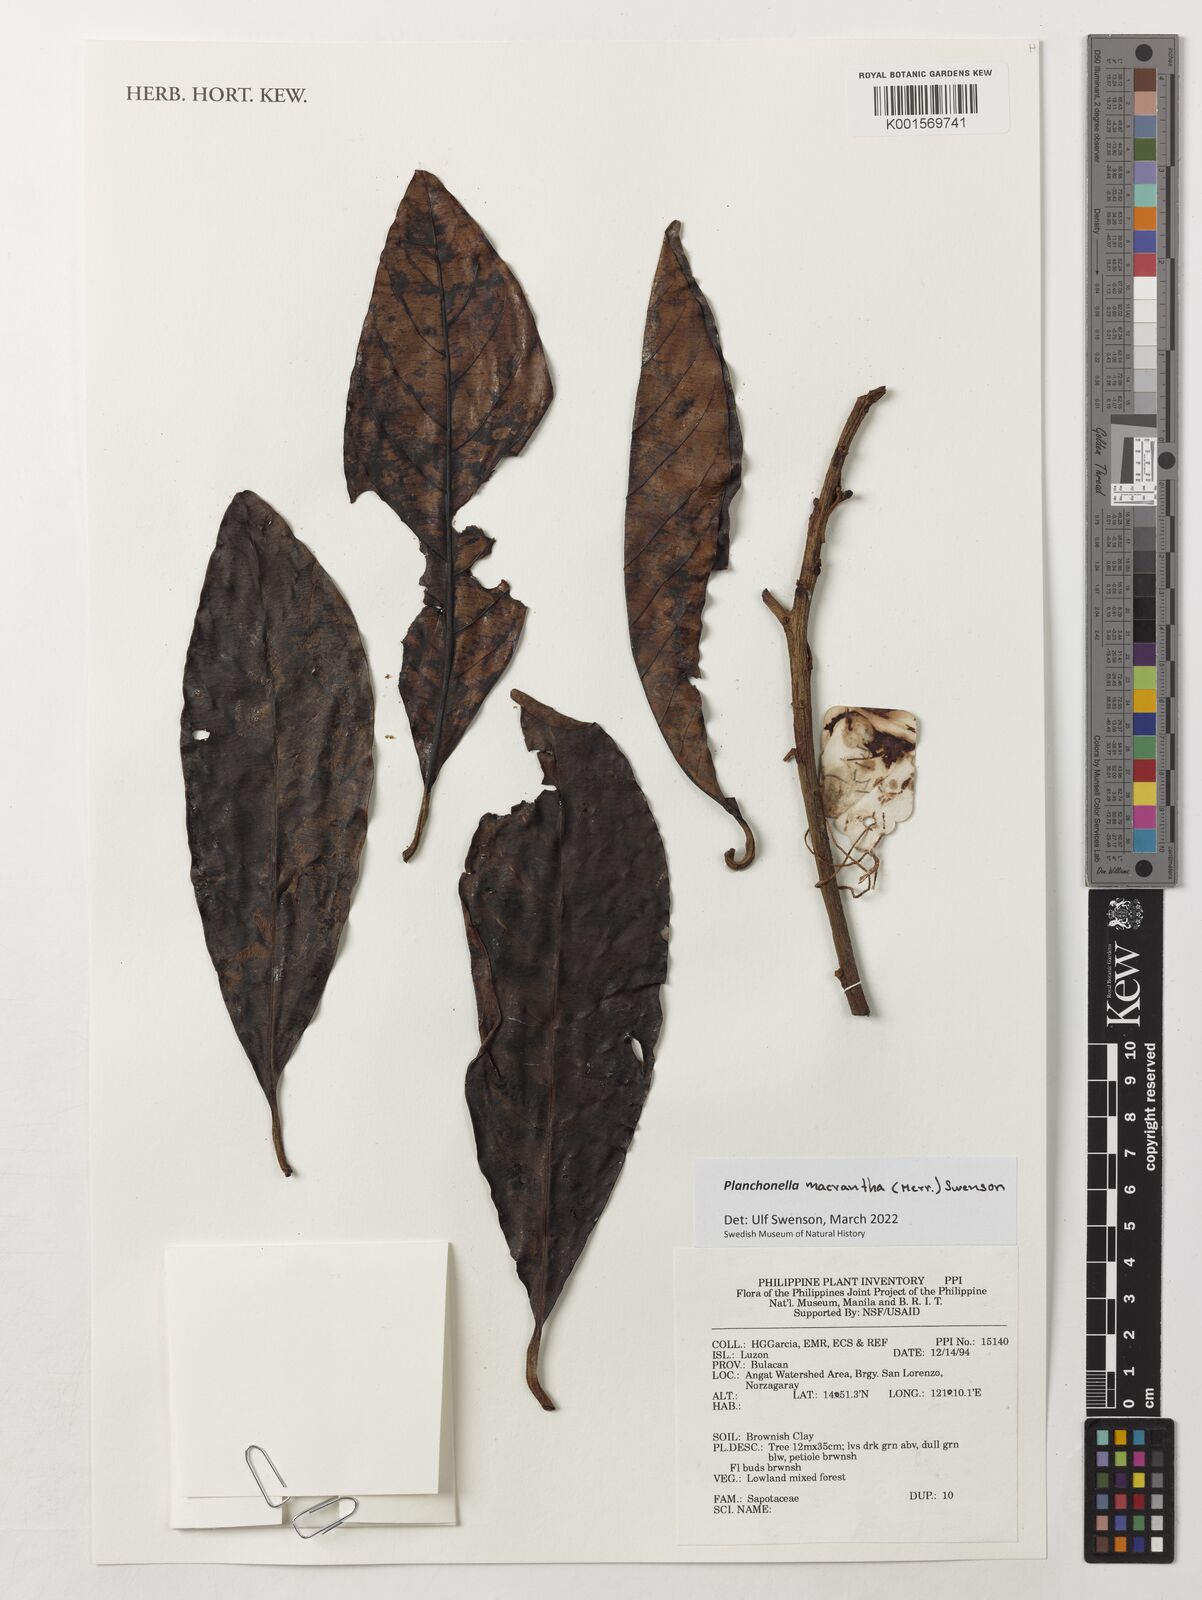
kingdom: Plantae
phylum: Tracheophyta
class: Magnoliopsida
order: Ericales
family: Sapotaceae
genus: Planchonella
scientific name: Planchonella macrantha
